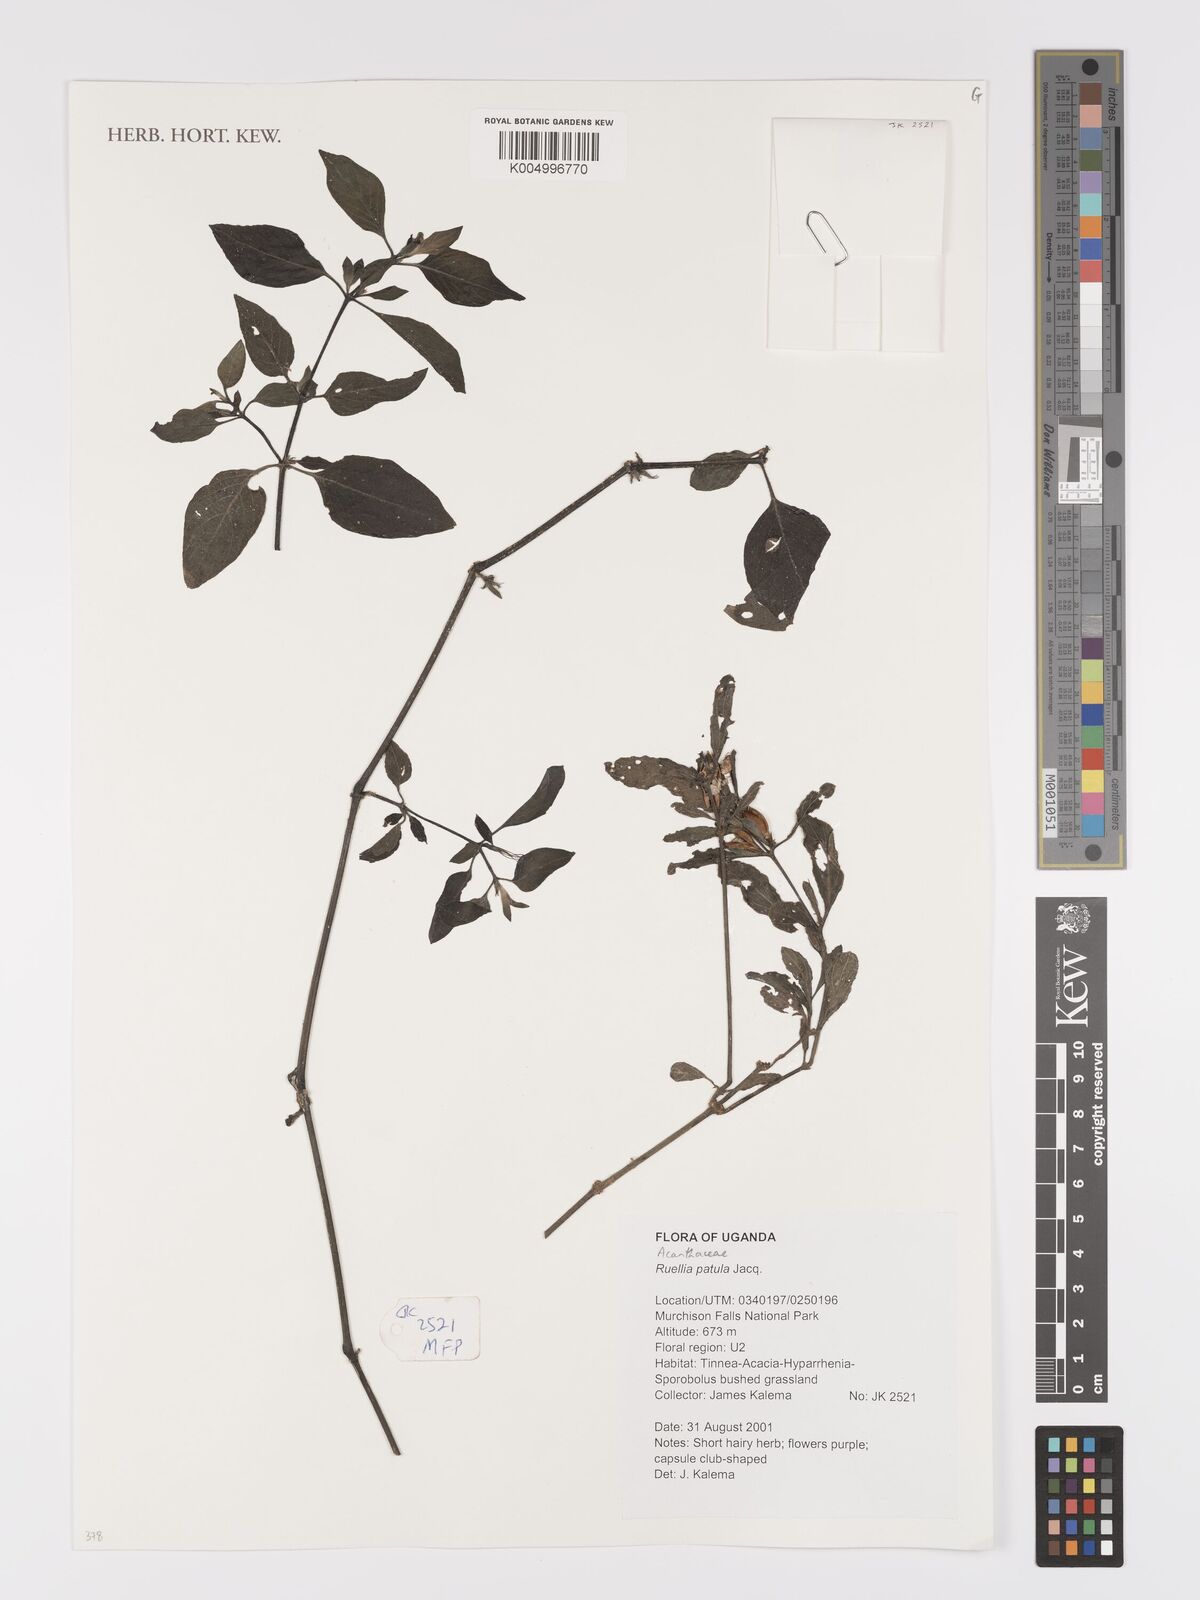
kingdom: Plantae
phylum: Tracheophyta
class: Magnoliopsida
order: Lamiales
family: Acanthaceae
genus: Ruellia
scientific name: Ruellia patula
